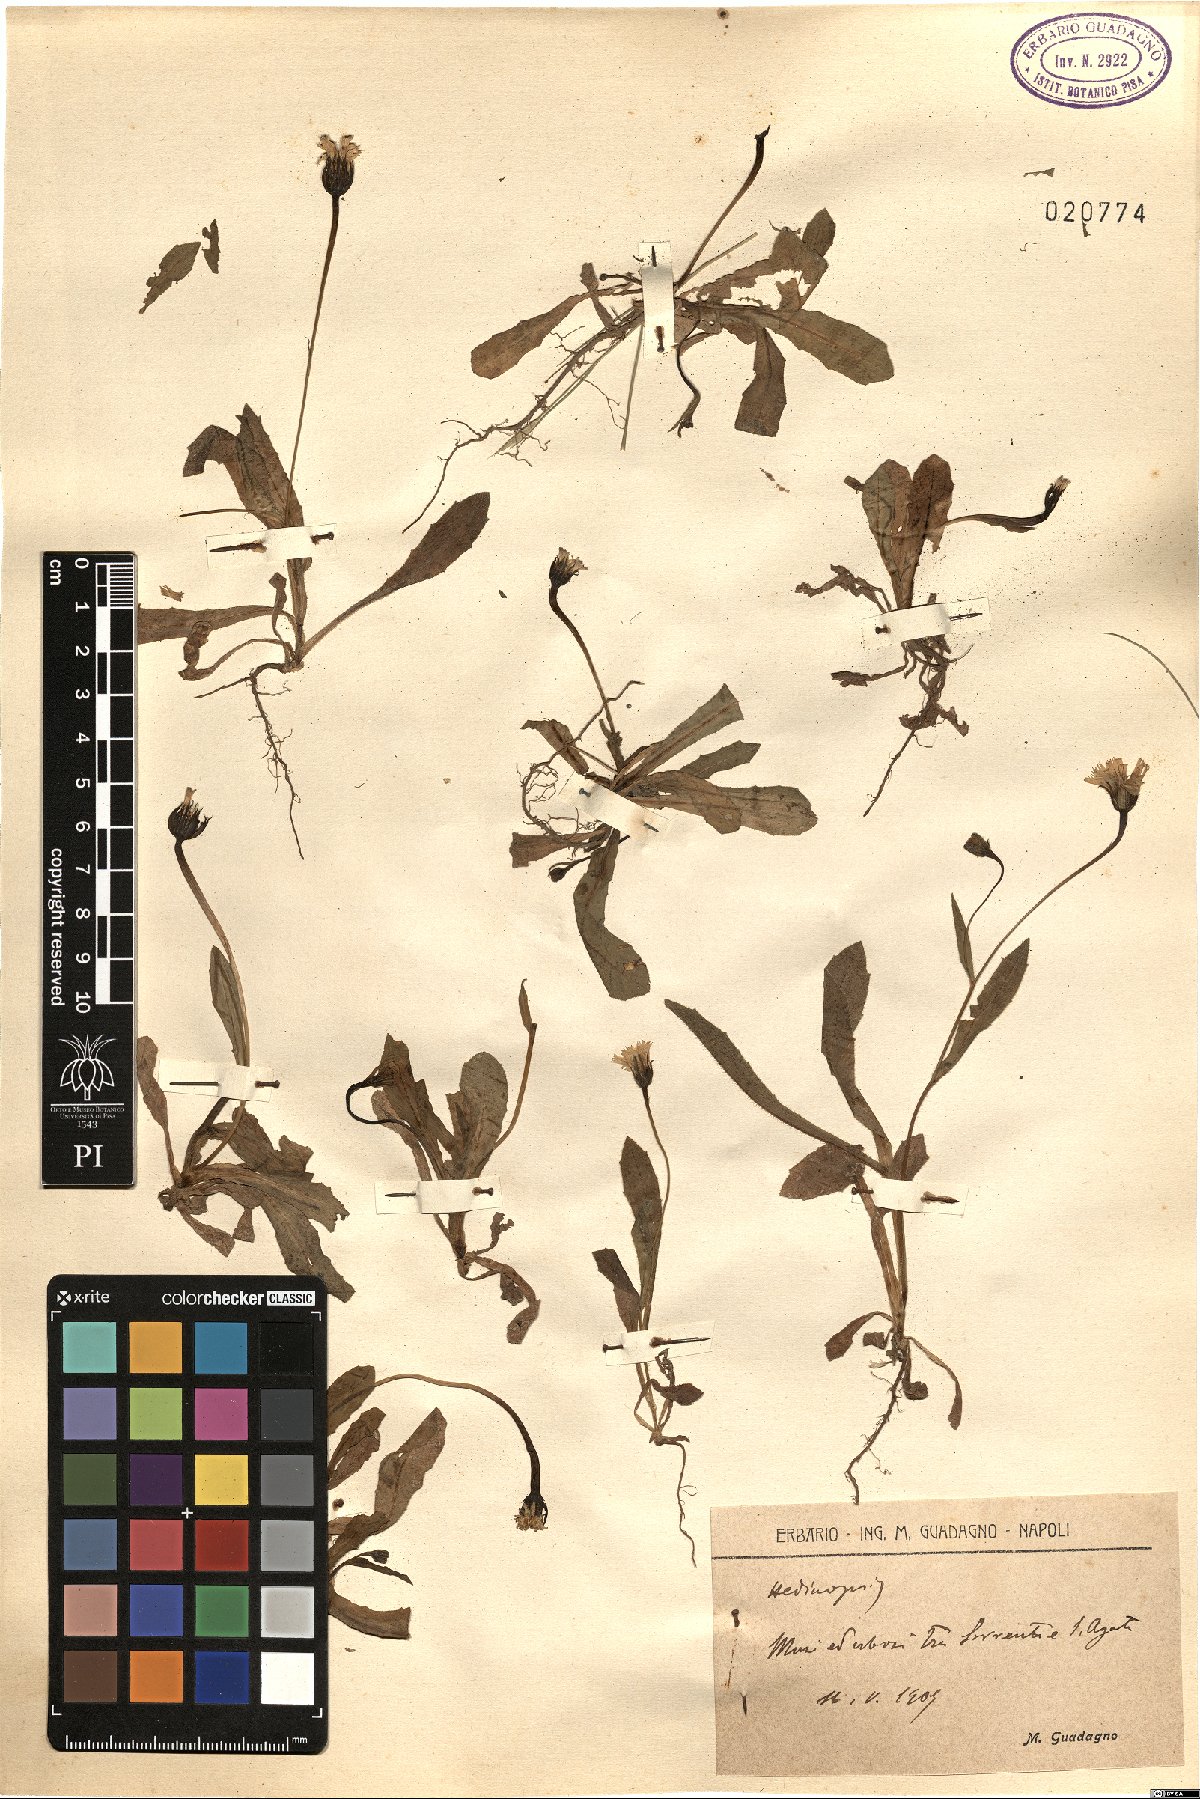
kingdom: Plantae
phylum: Tracheophyta
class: Magnoliopsida
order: Asterales
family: Asteraceae
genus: Hedypnois
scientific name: Hedypnois
